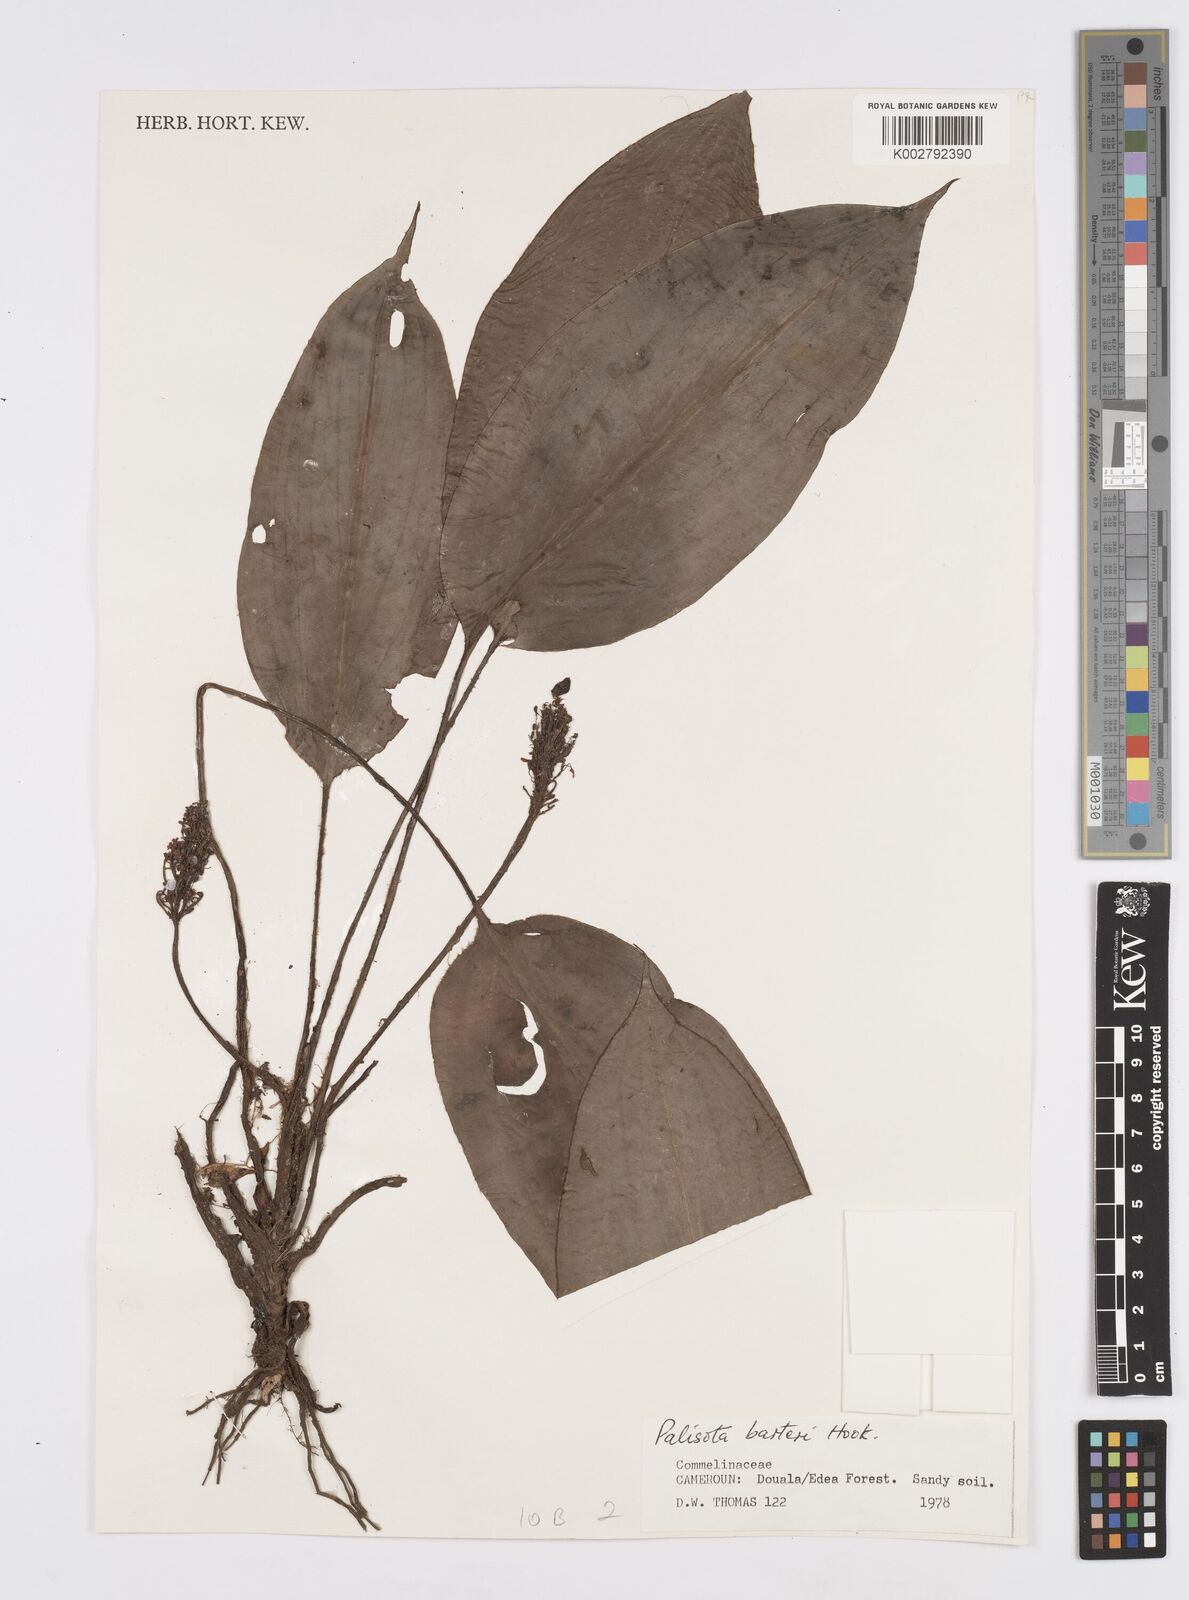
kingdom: Plantae
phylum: Tracheophyta
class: Liliopsida
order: Commelinales
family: Commelinaceae
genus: Palisota
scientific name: Palisota barteri
